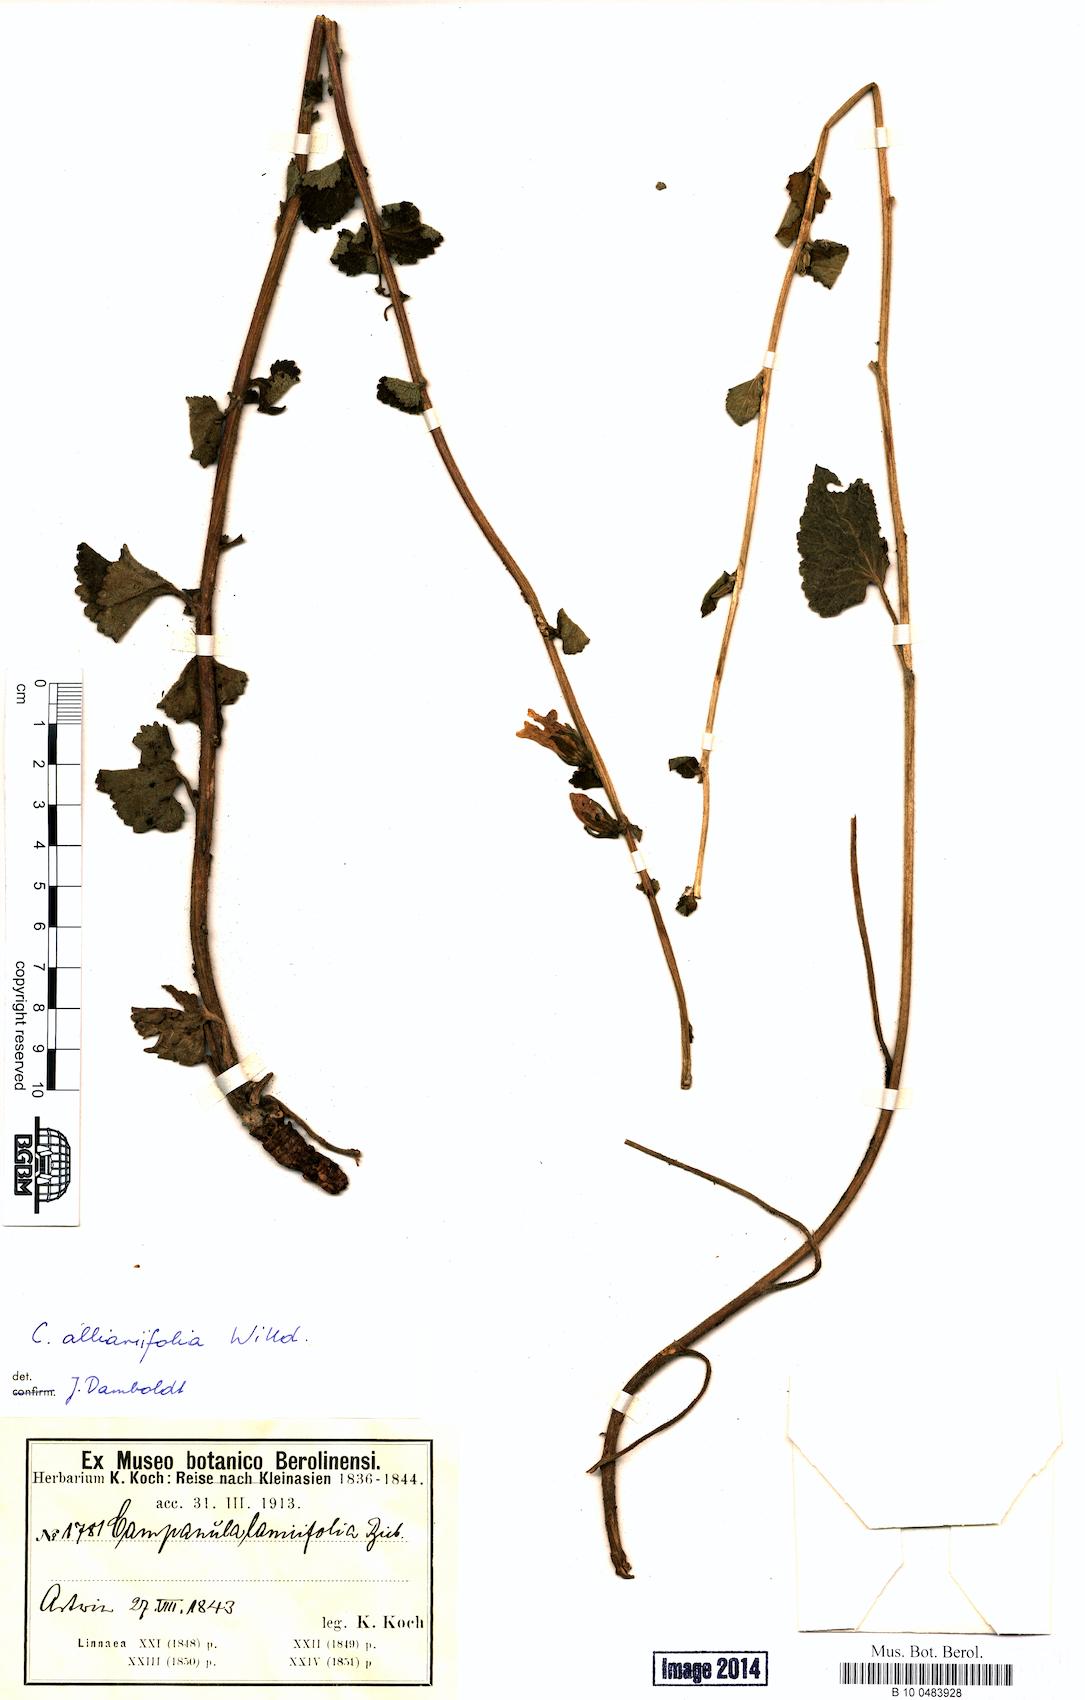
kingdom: Plantae
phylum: Tracheophyta
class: Magnoliopsida
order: Asterales
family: Campanulaceae
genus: Campanula
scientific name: Campanula alliariifolia
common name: Cornish bellflower
